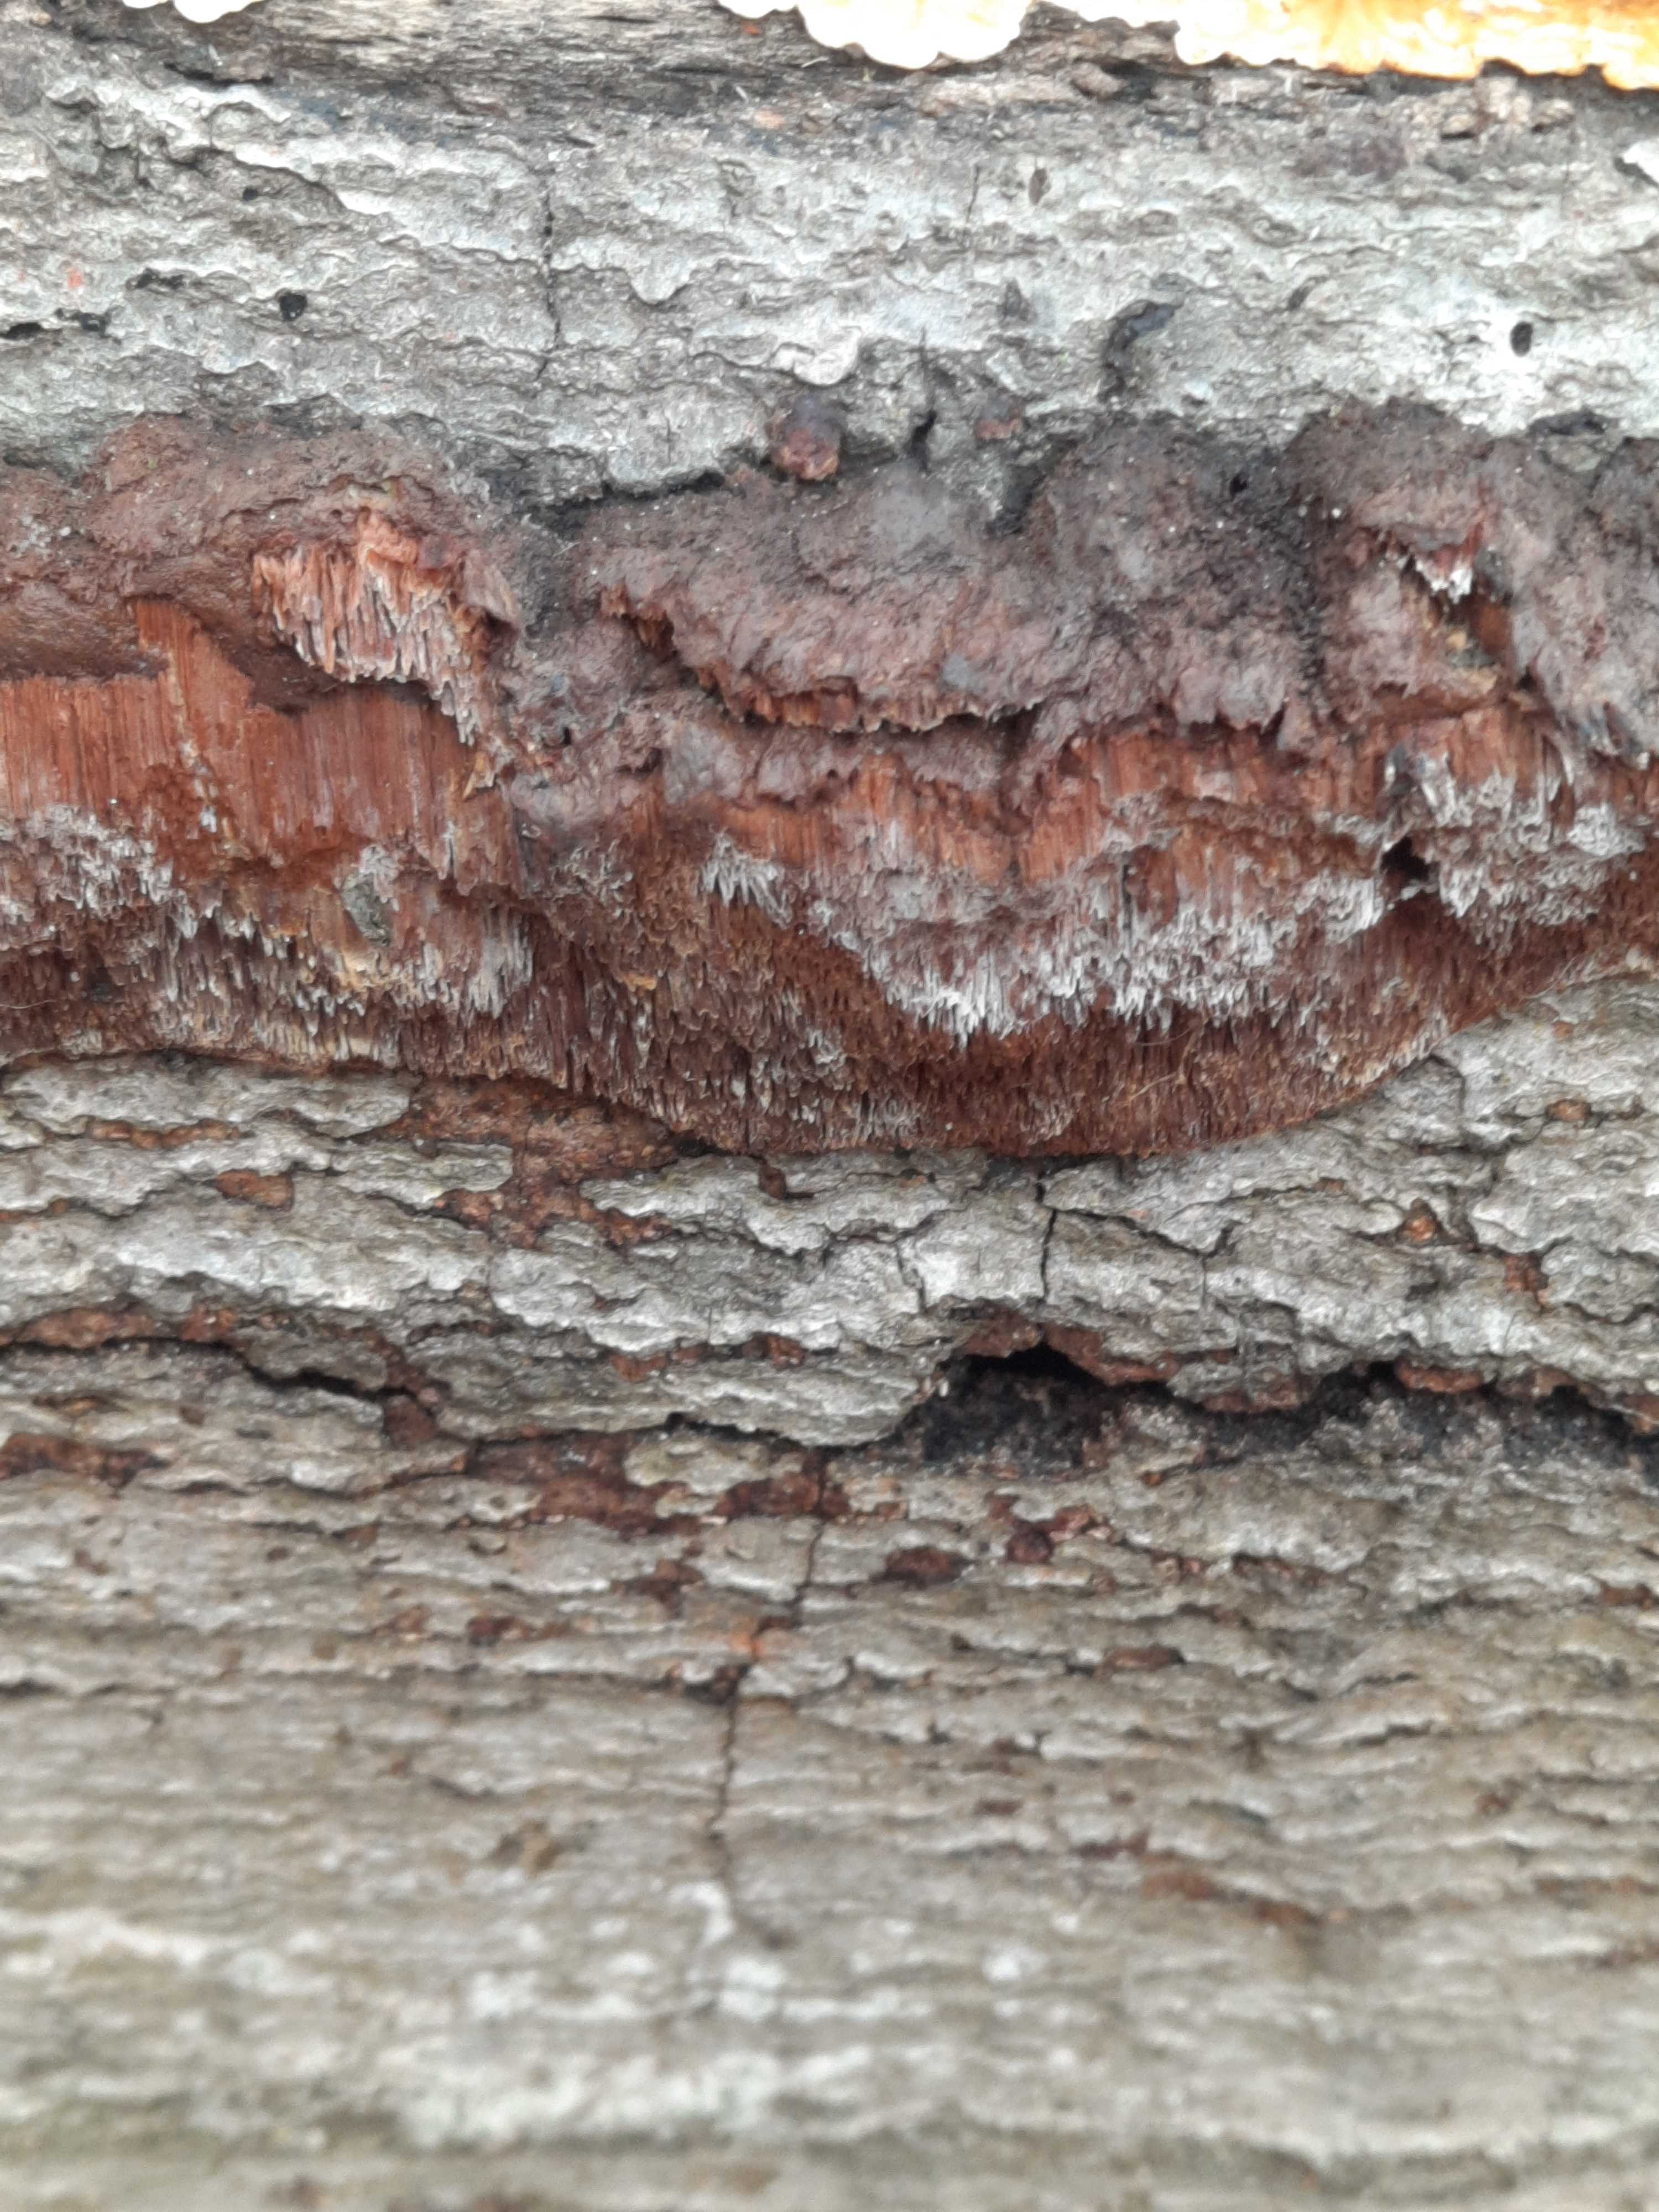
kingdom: Fungi
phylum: Basidiomycota
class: Agaricomycetes
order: Hymenochaetales
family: Hymenochaetaceae
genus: Mensularia
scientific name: Mensularia nodulosa
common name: bøge-spejlporesvamp
